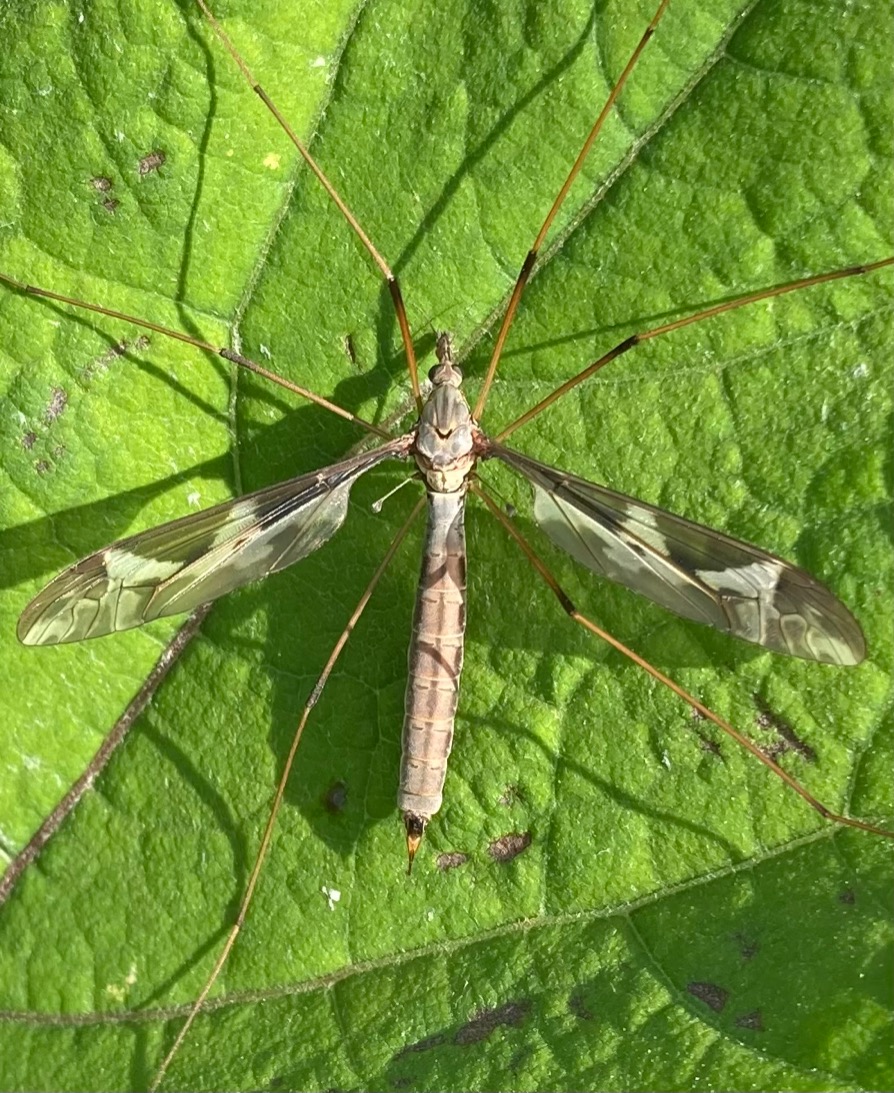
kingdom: Animalia
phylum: Arthropoda
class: Insecta
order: Diptera
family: Tipulidae
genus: Tipula
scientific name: Tipula maxima
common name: Kæmpestankelben
